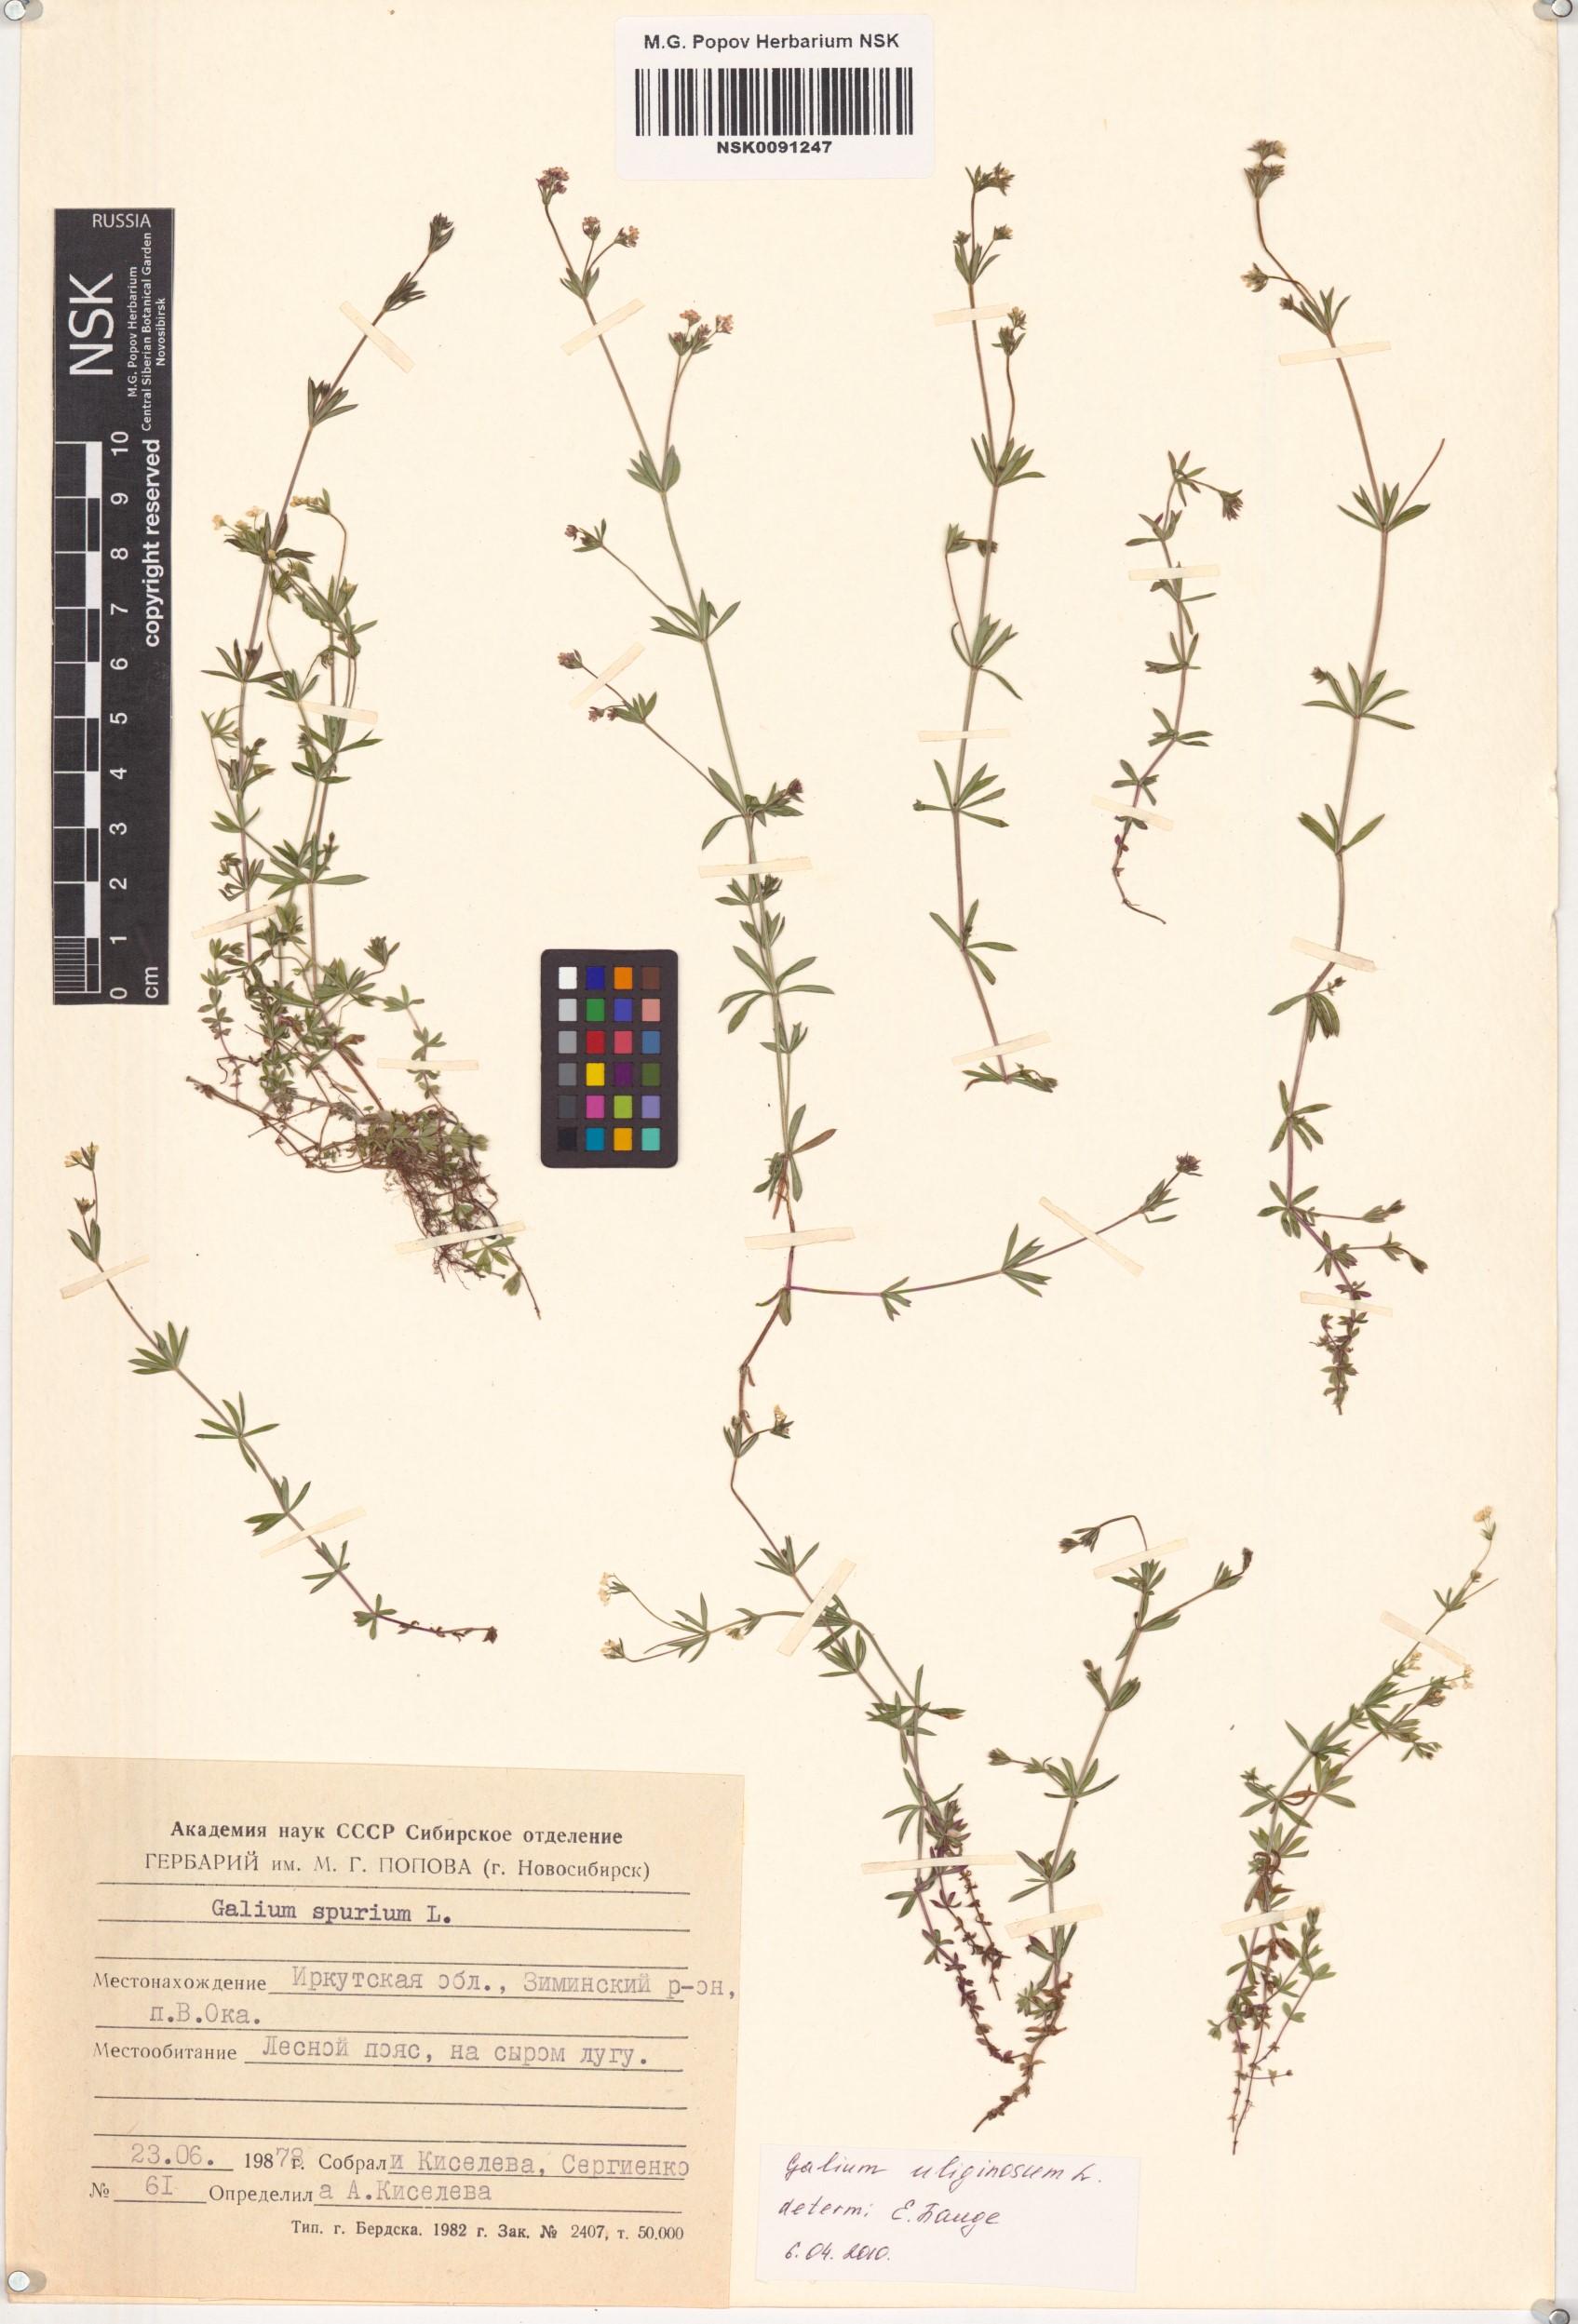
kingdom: Plantae
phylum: Tracheophyta
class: Magnoliopsida
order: Gentianales
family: Rubiaceae
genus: Galium
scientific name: Galium uliginosum
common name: Fen bedstraw
